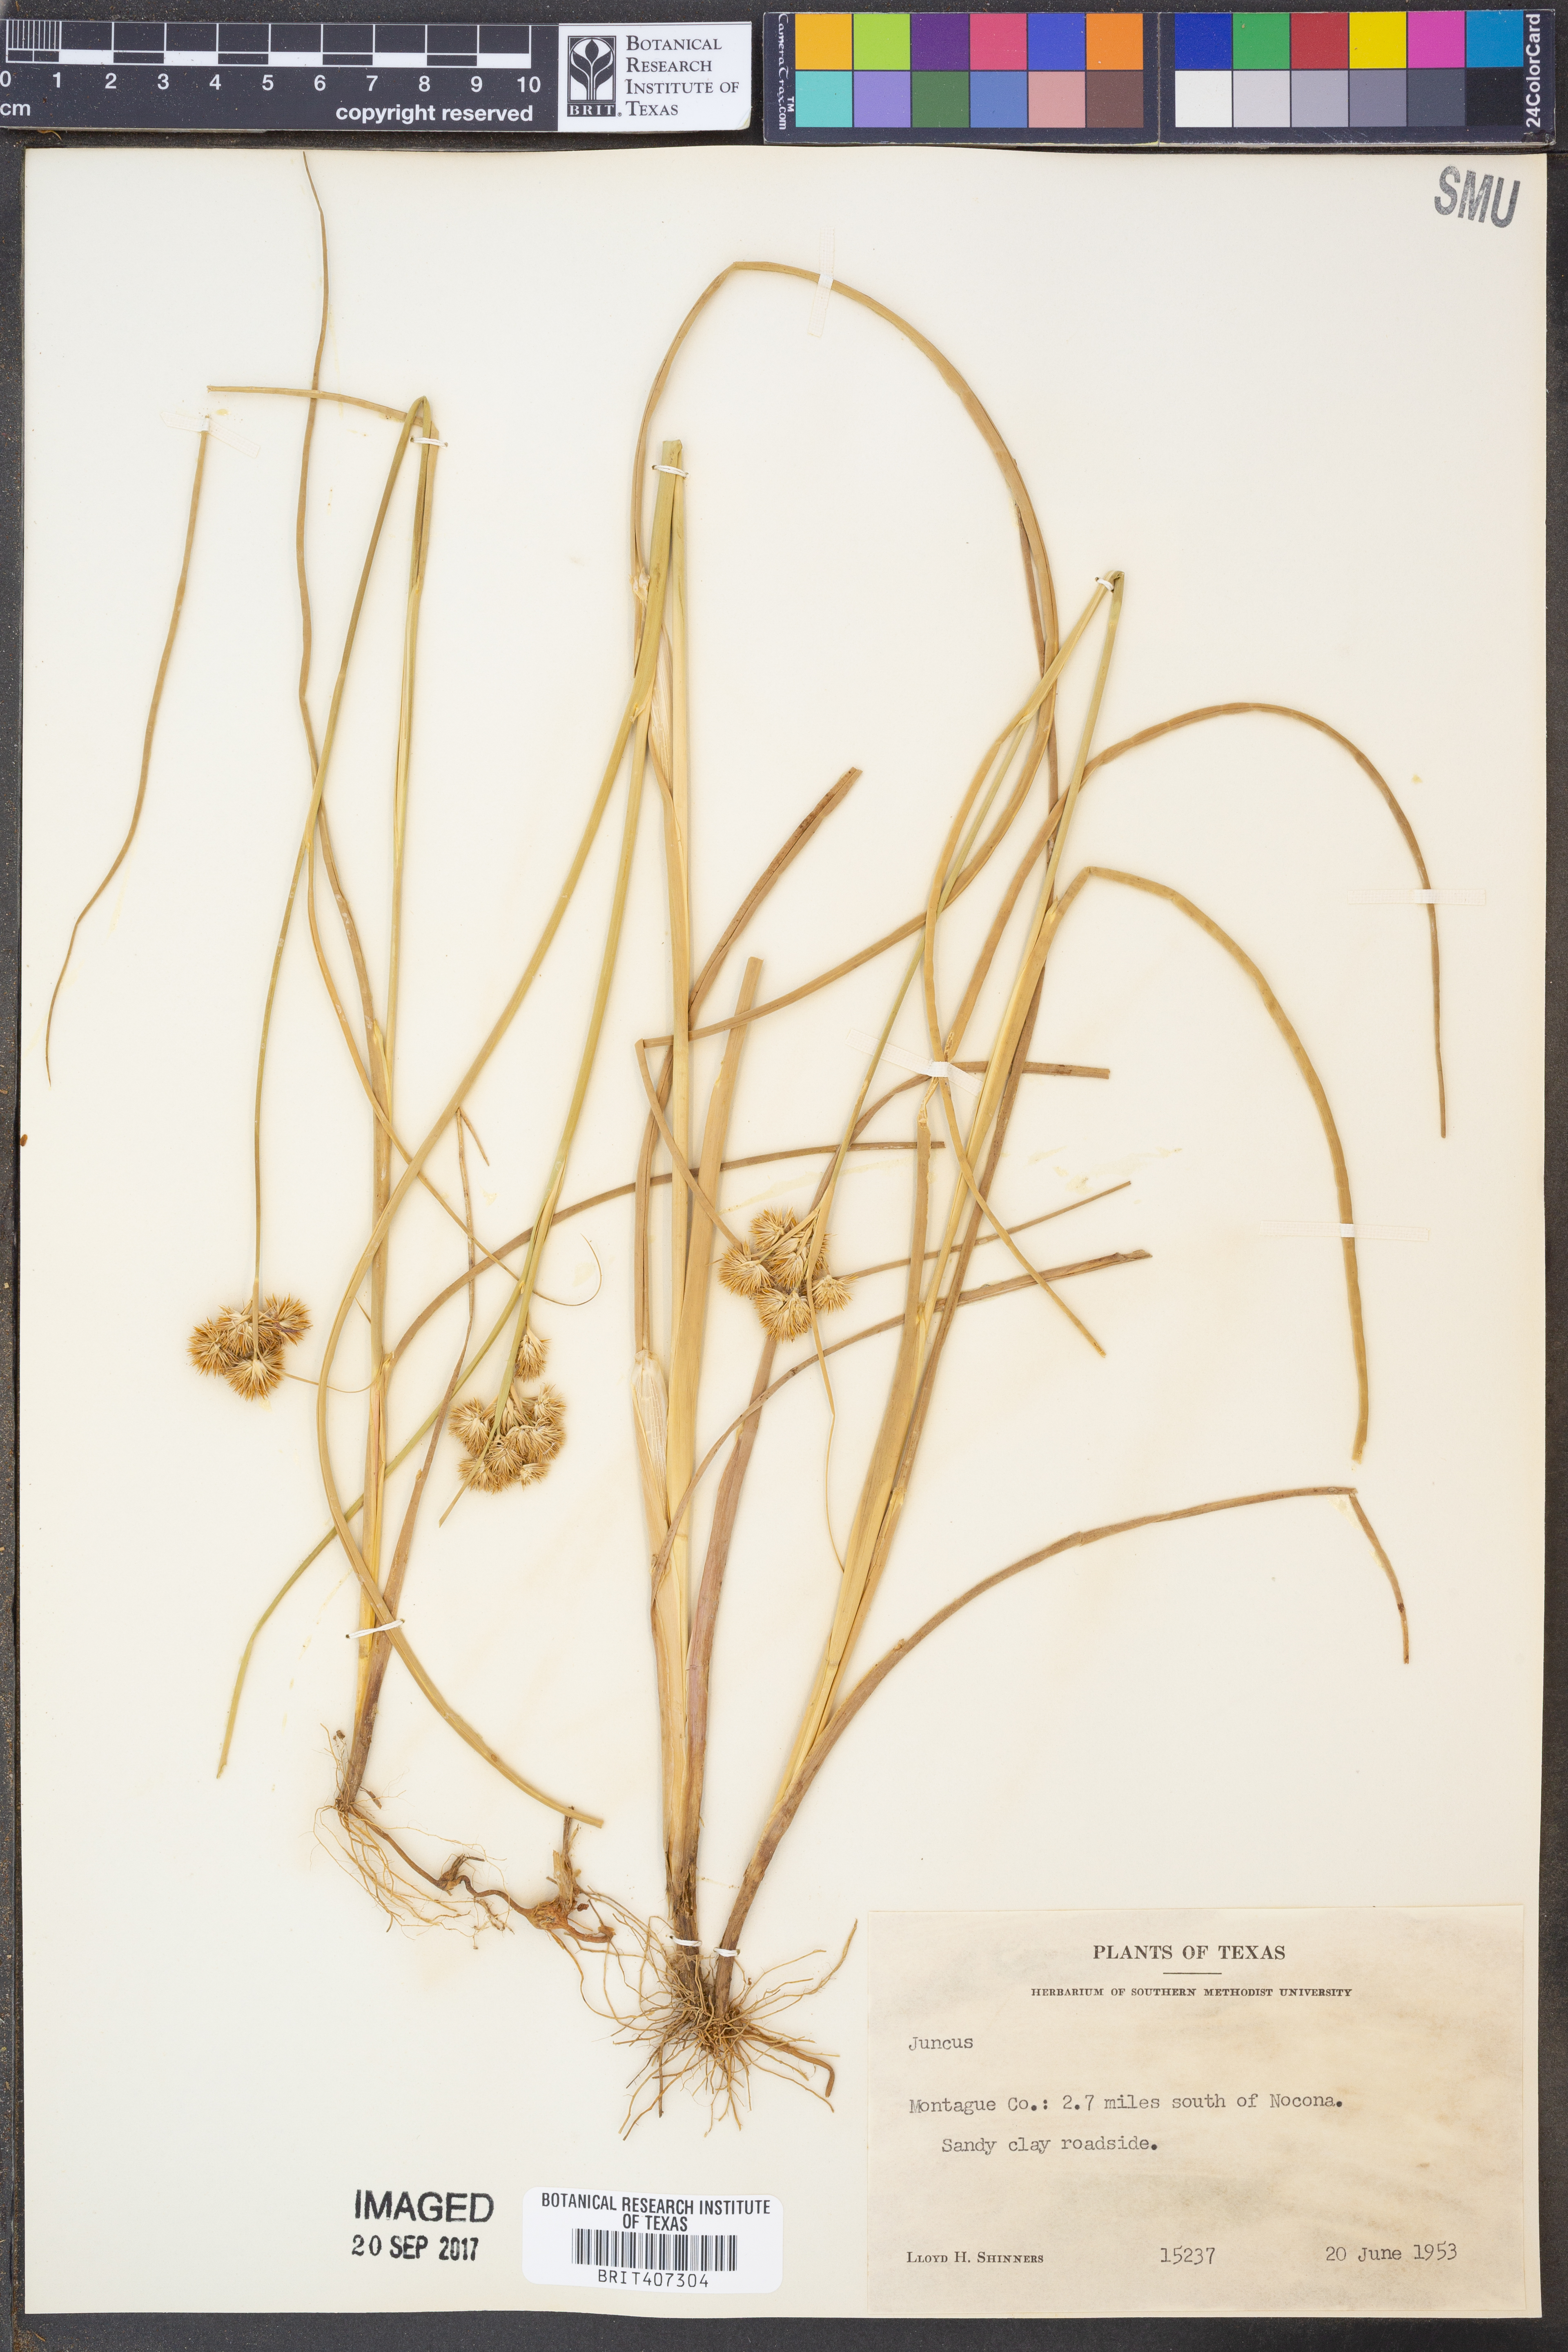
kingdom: Plantae
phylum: Tracheophyta
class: Liliopsida
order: Poales
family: Juncaceae
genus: Juncus
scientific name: Juncus
